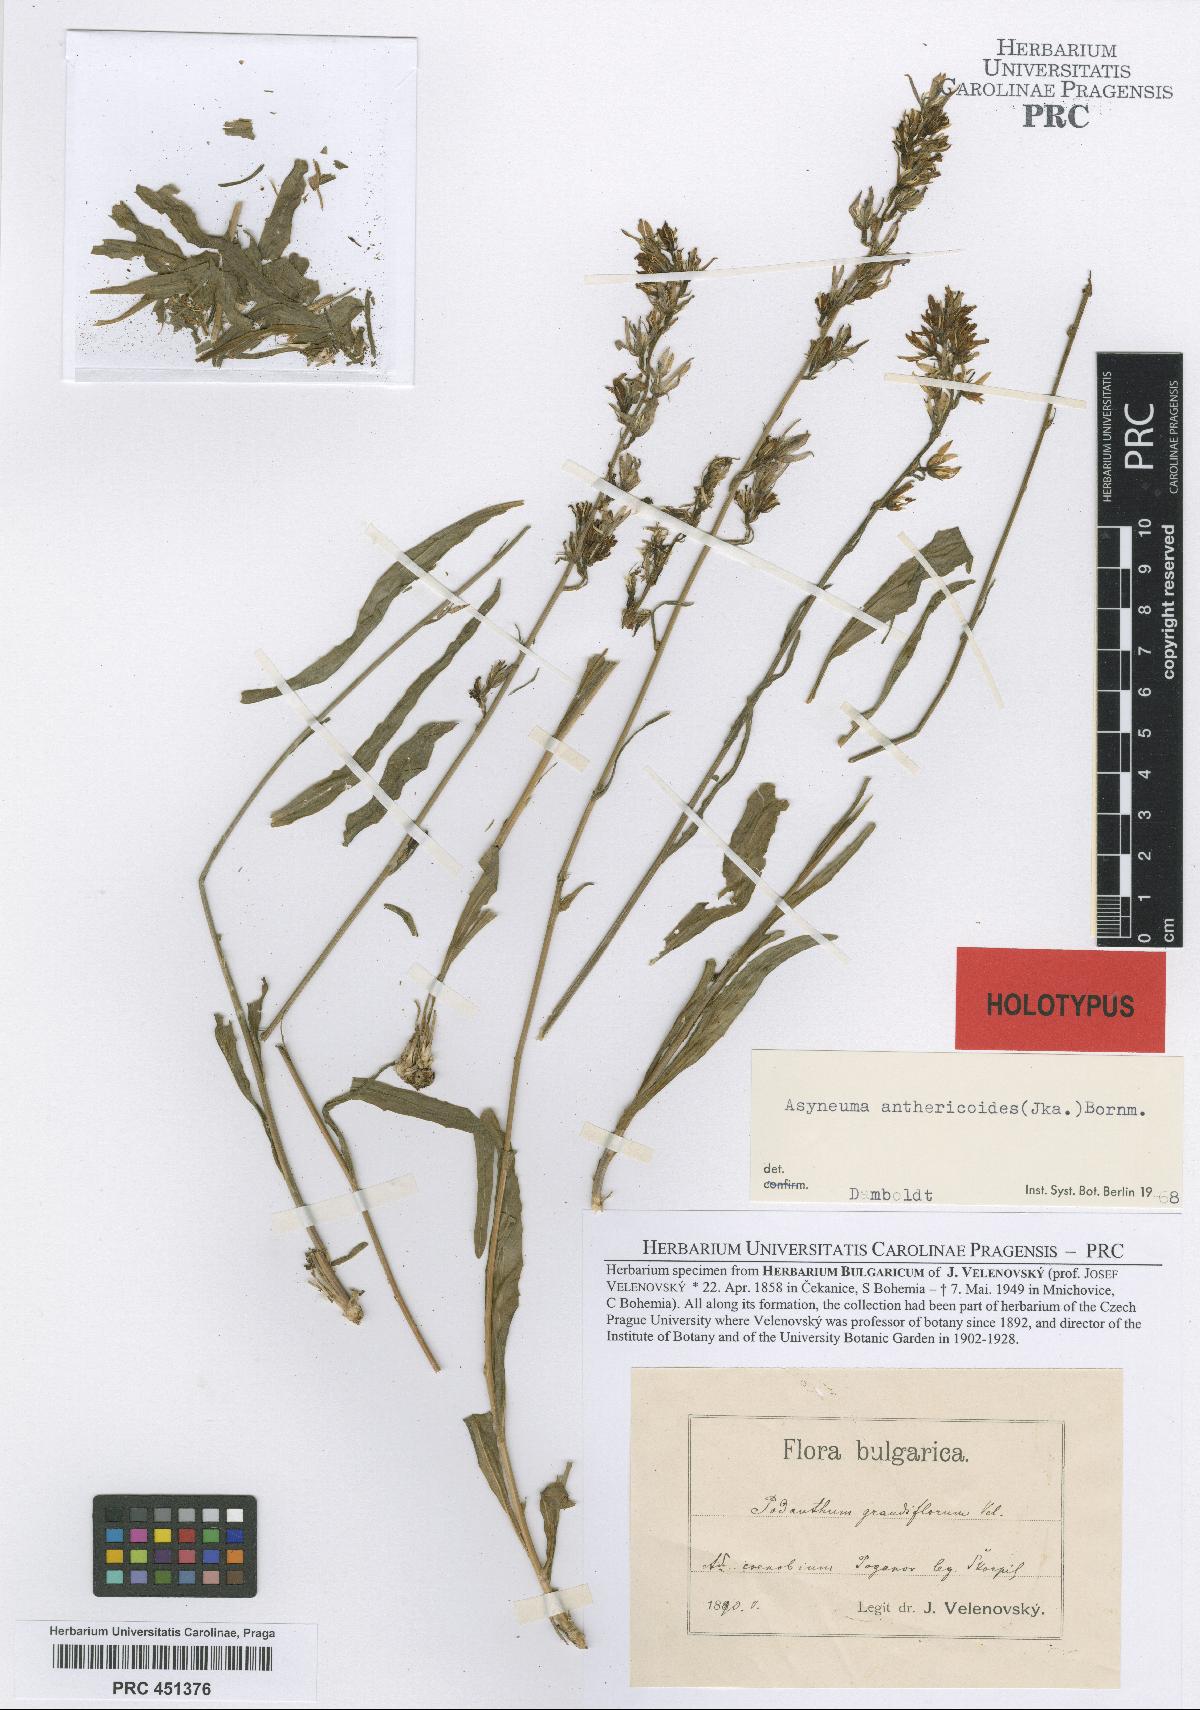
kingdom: Plantae
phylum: Tracheophyta
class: Magnoliopsida
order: Asterales
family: Campanulaceae
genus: Asyneuma
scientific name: Asyneuma anthericoides
